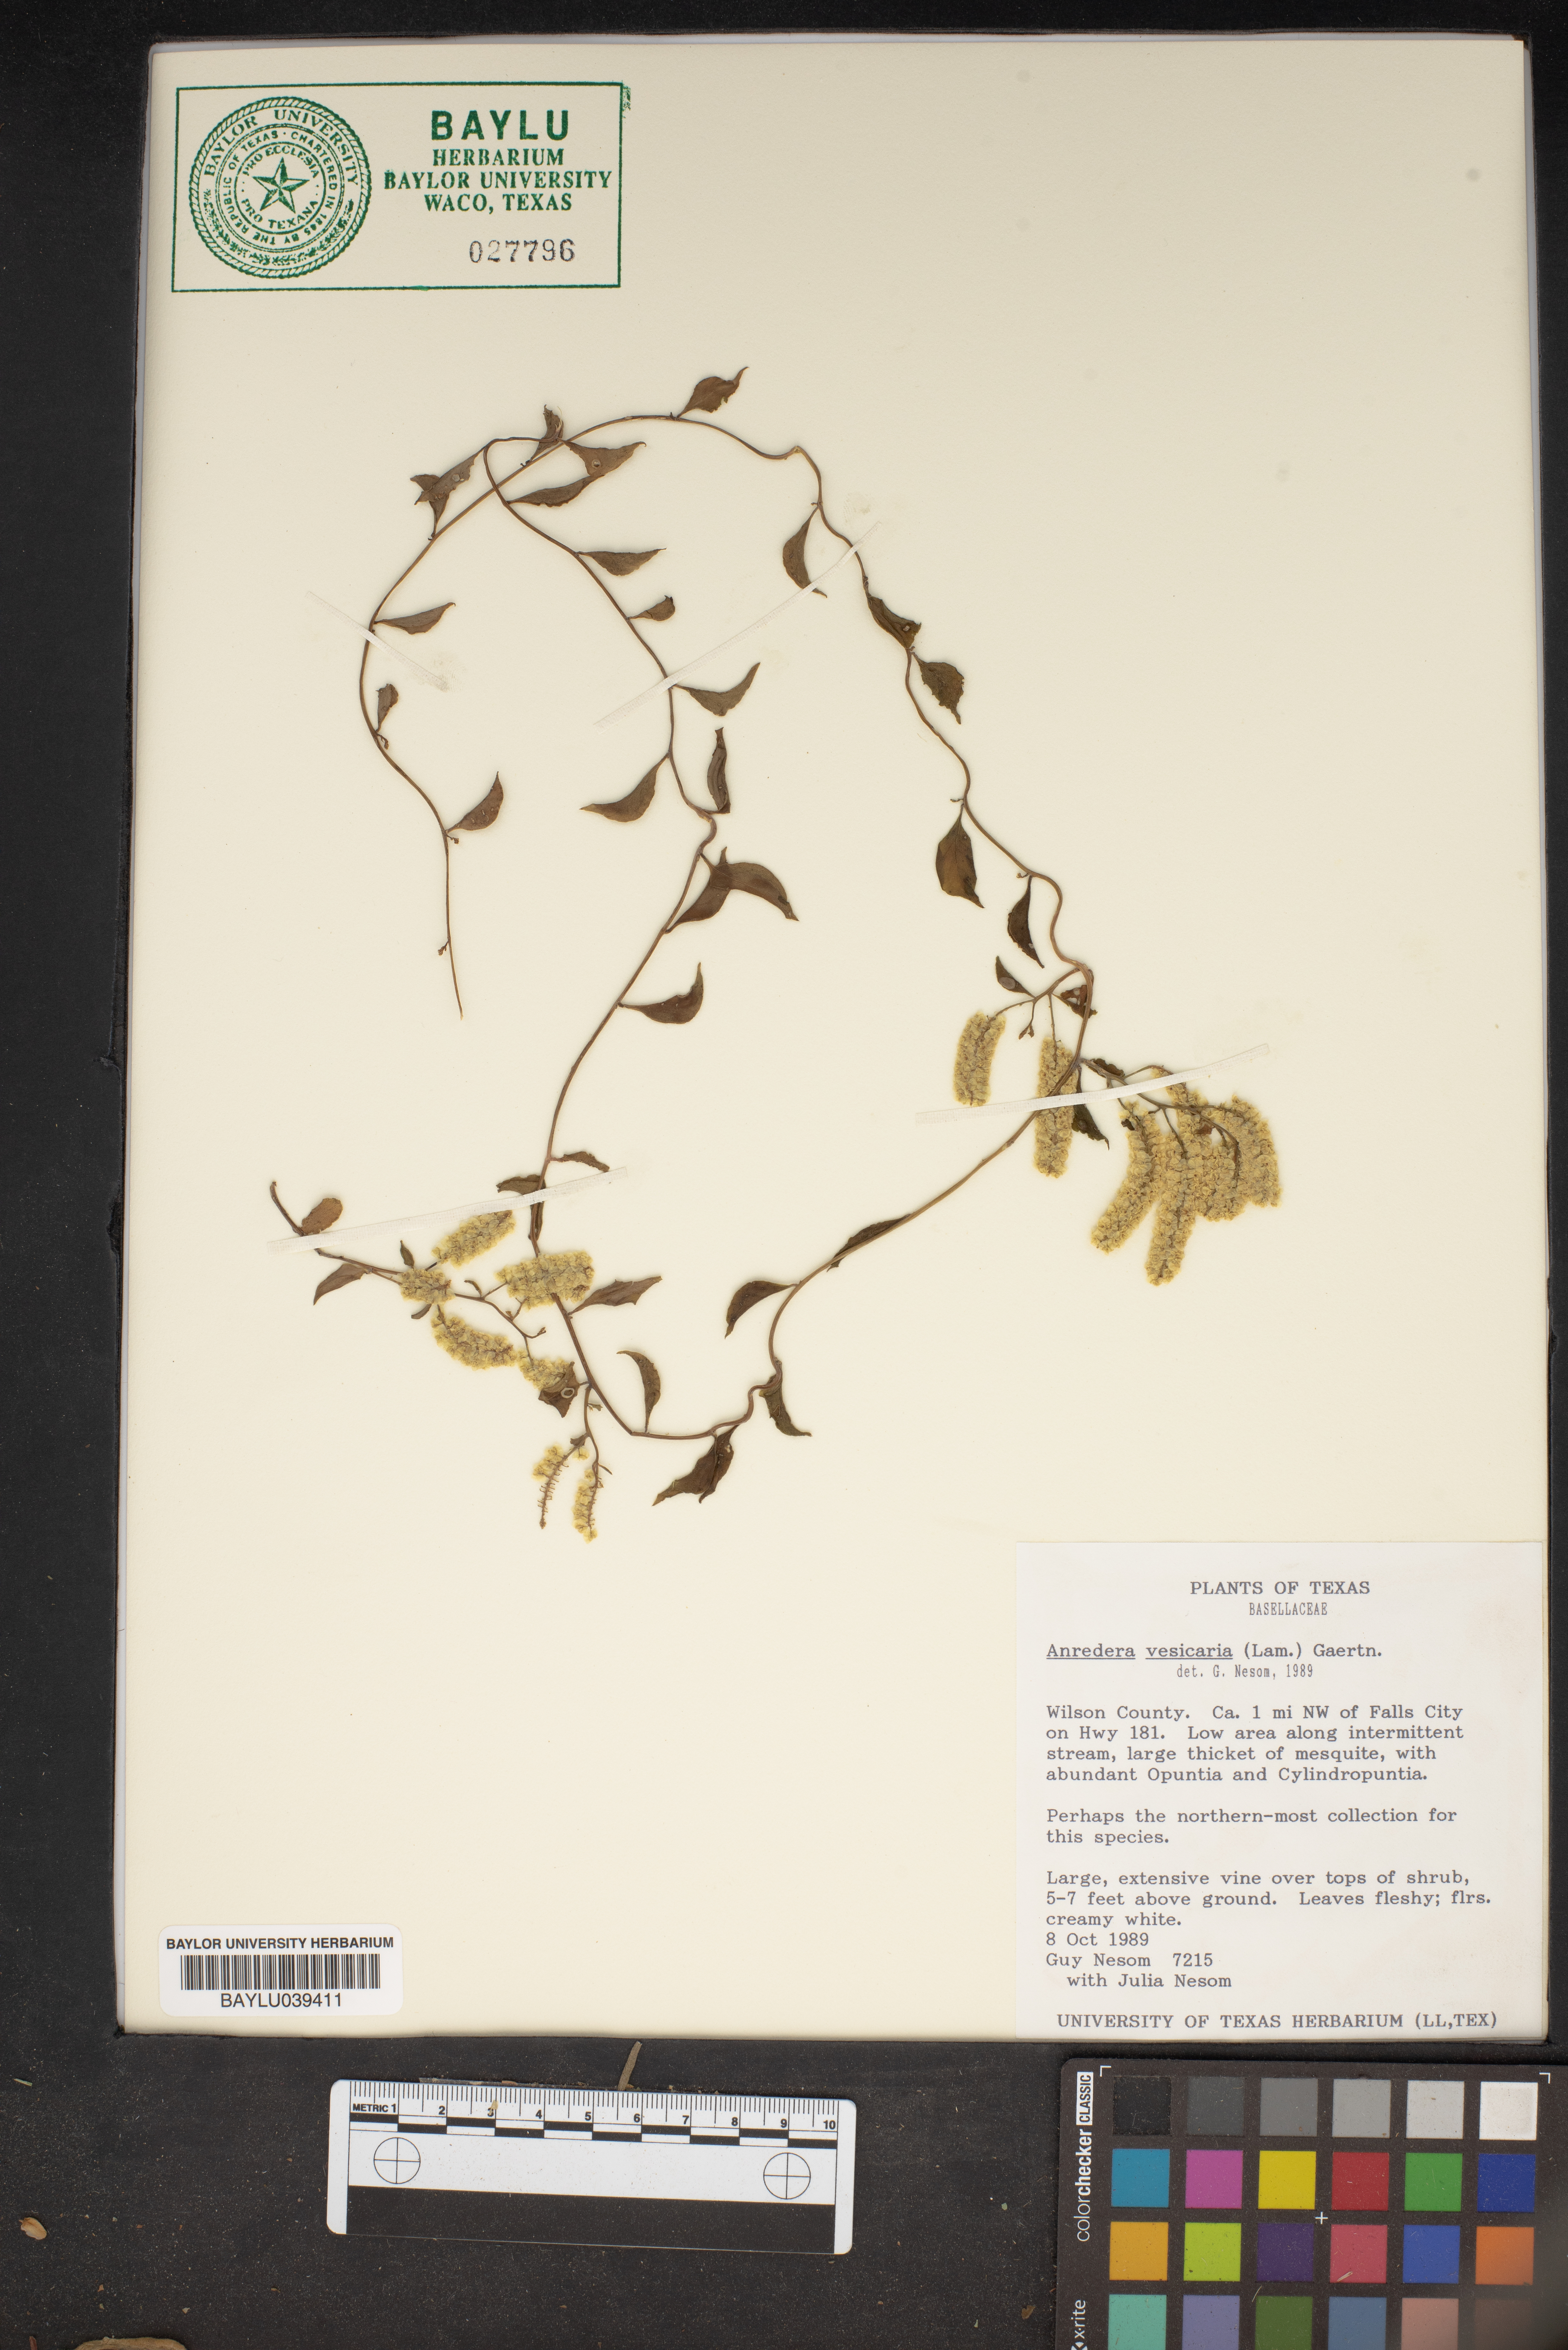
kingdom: Plantae
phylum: Tracheophyta
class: Magnoliopsida
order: Caryophyllales
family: Basellaceae
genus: Anredera
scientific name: Anredera vesicaria
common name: Sacasile
